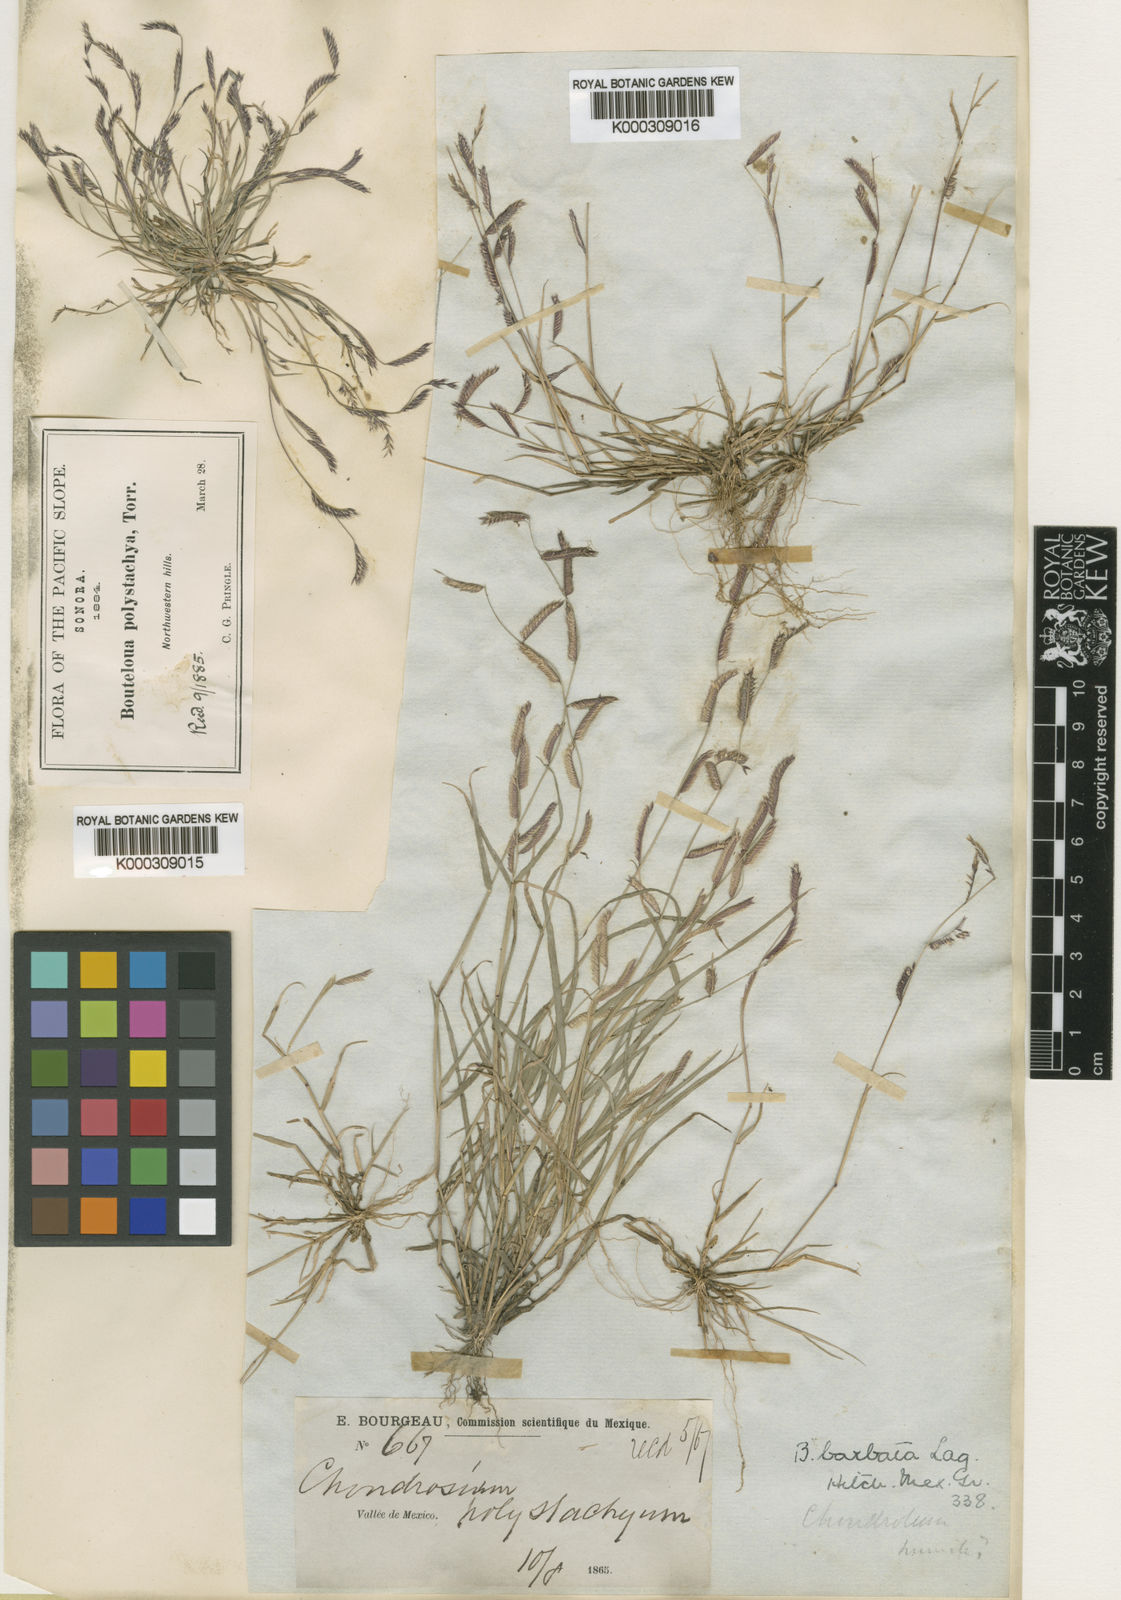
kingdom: Plantae
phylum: Tracheophyta
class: Liliopsida
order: Poales
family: Poaceae
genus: Bouteloua
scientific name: Bouteloua barbata
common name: Six-weeks grama
